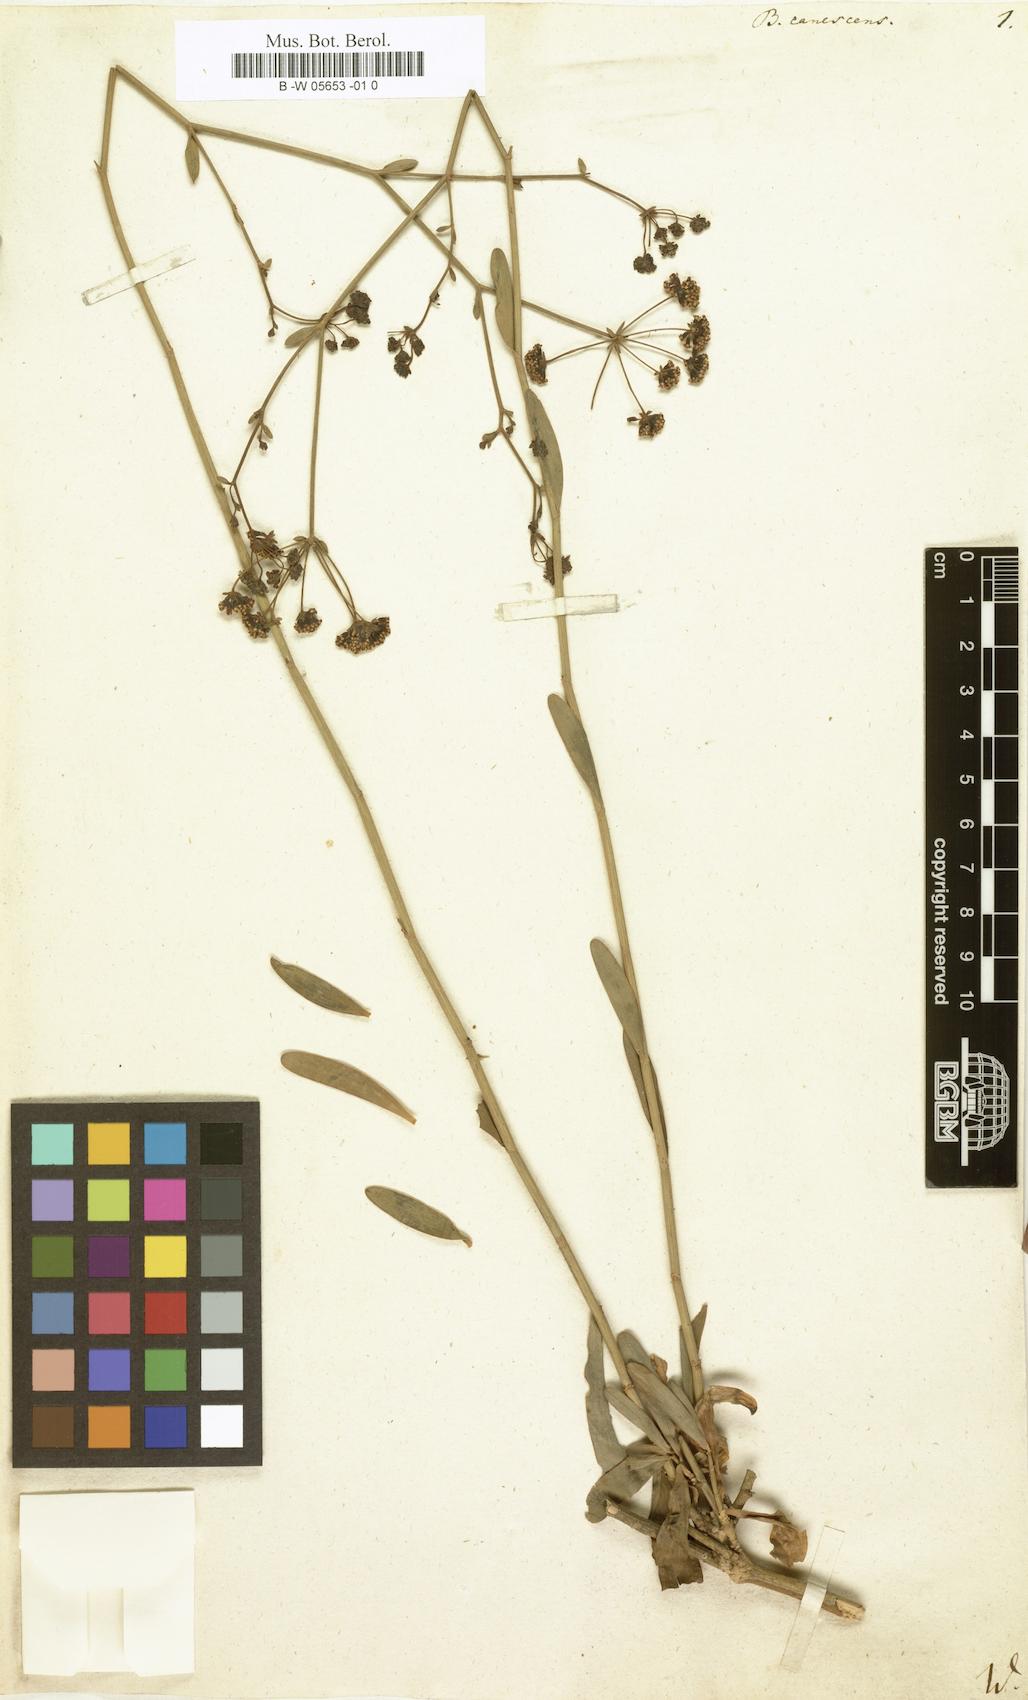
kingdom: Plantae
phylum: Tracheophyta
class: Magnoliopsida
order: Apiales
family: Apiaceae
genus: Bupleurum
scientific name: Bupleurum canescens
